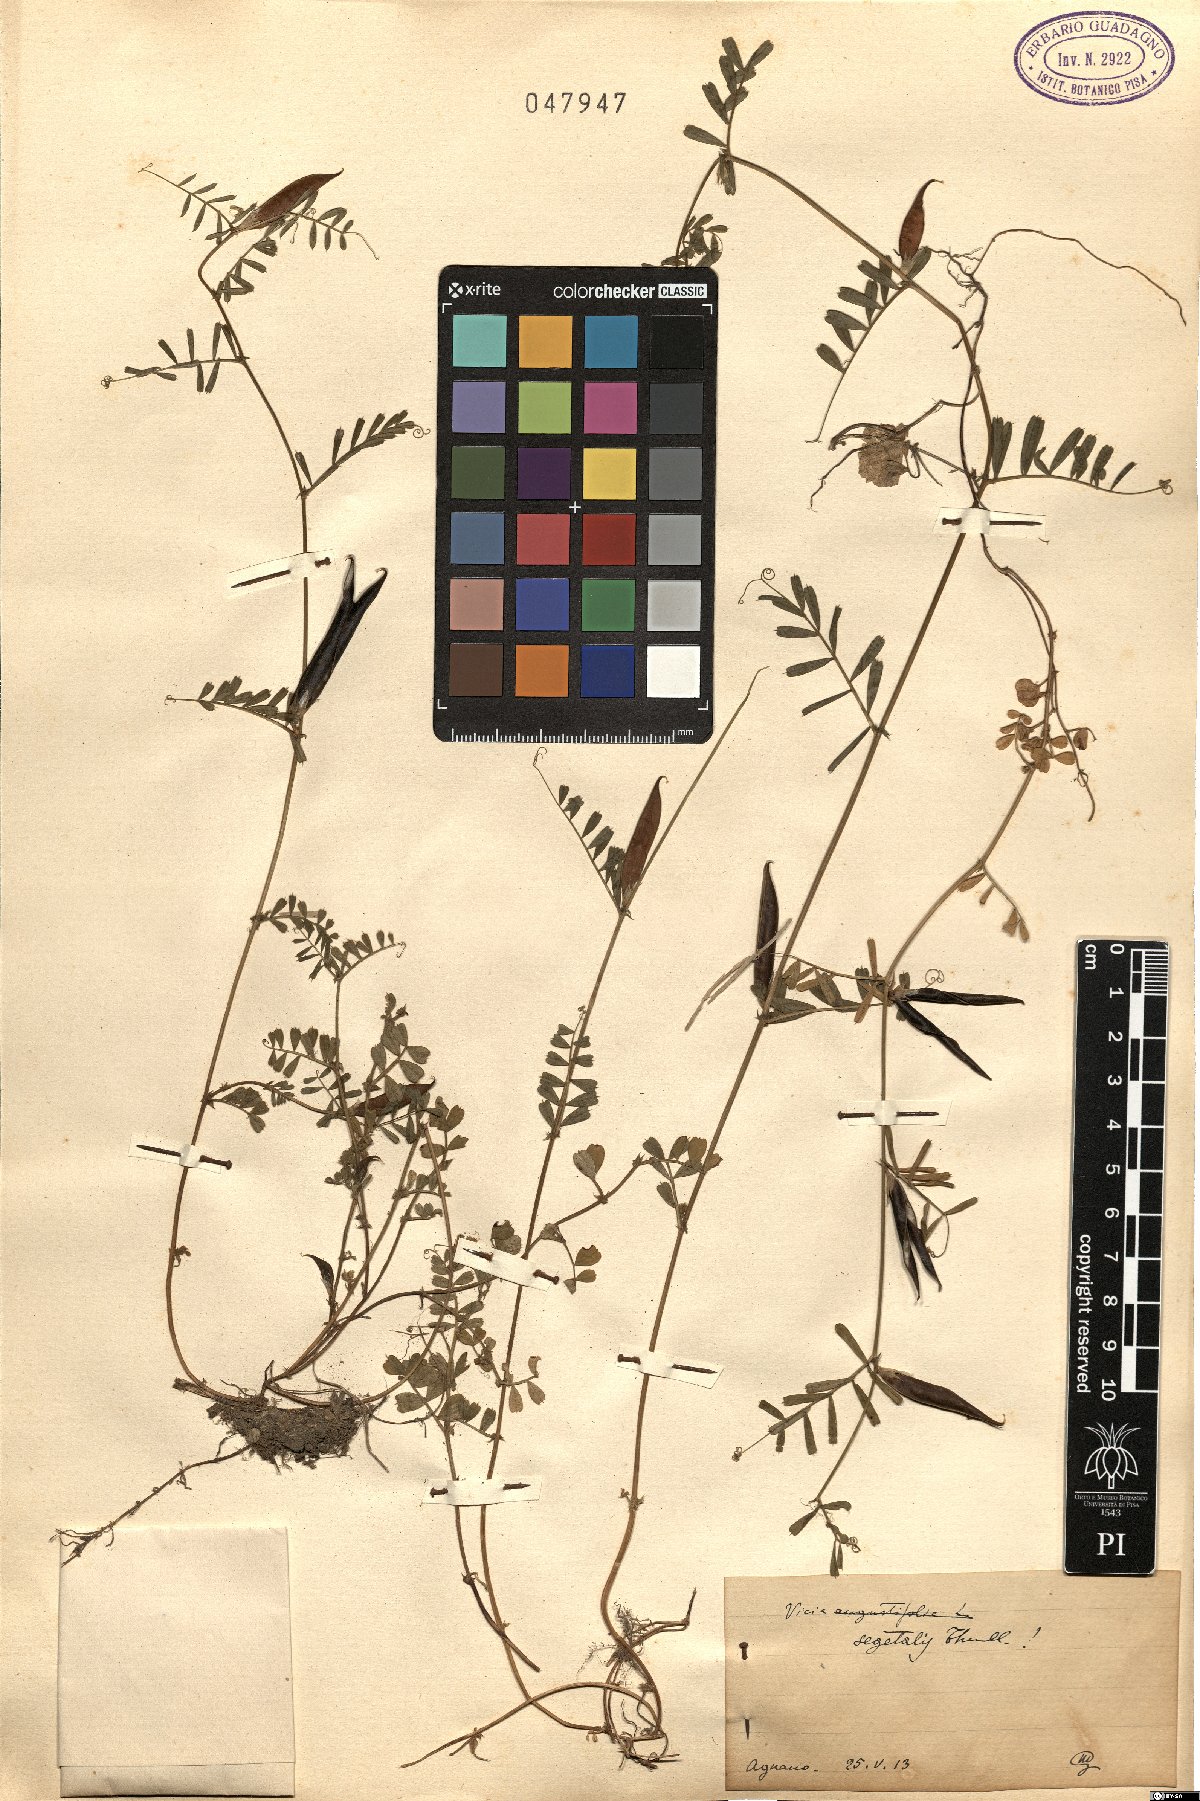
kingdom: Plantae
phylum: Tracheophyta
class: Magnoliopsida
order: Fabales
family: Fabaceae
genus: Vicia
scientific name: Vicia sativa
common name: Garden vetch
